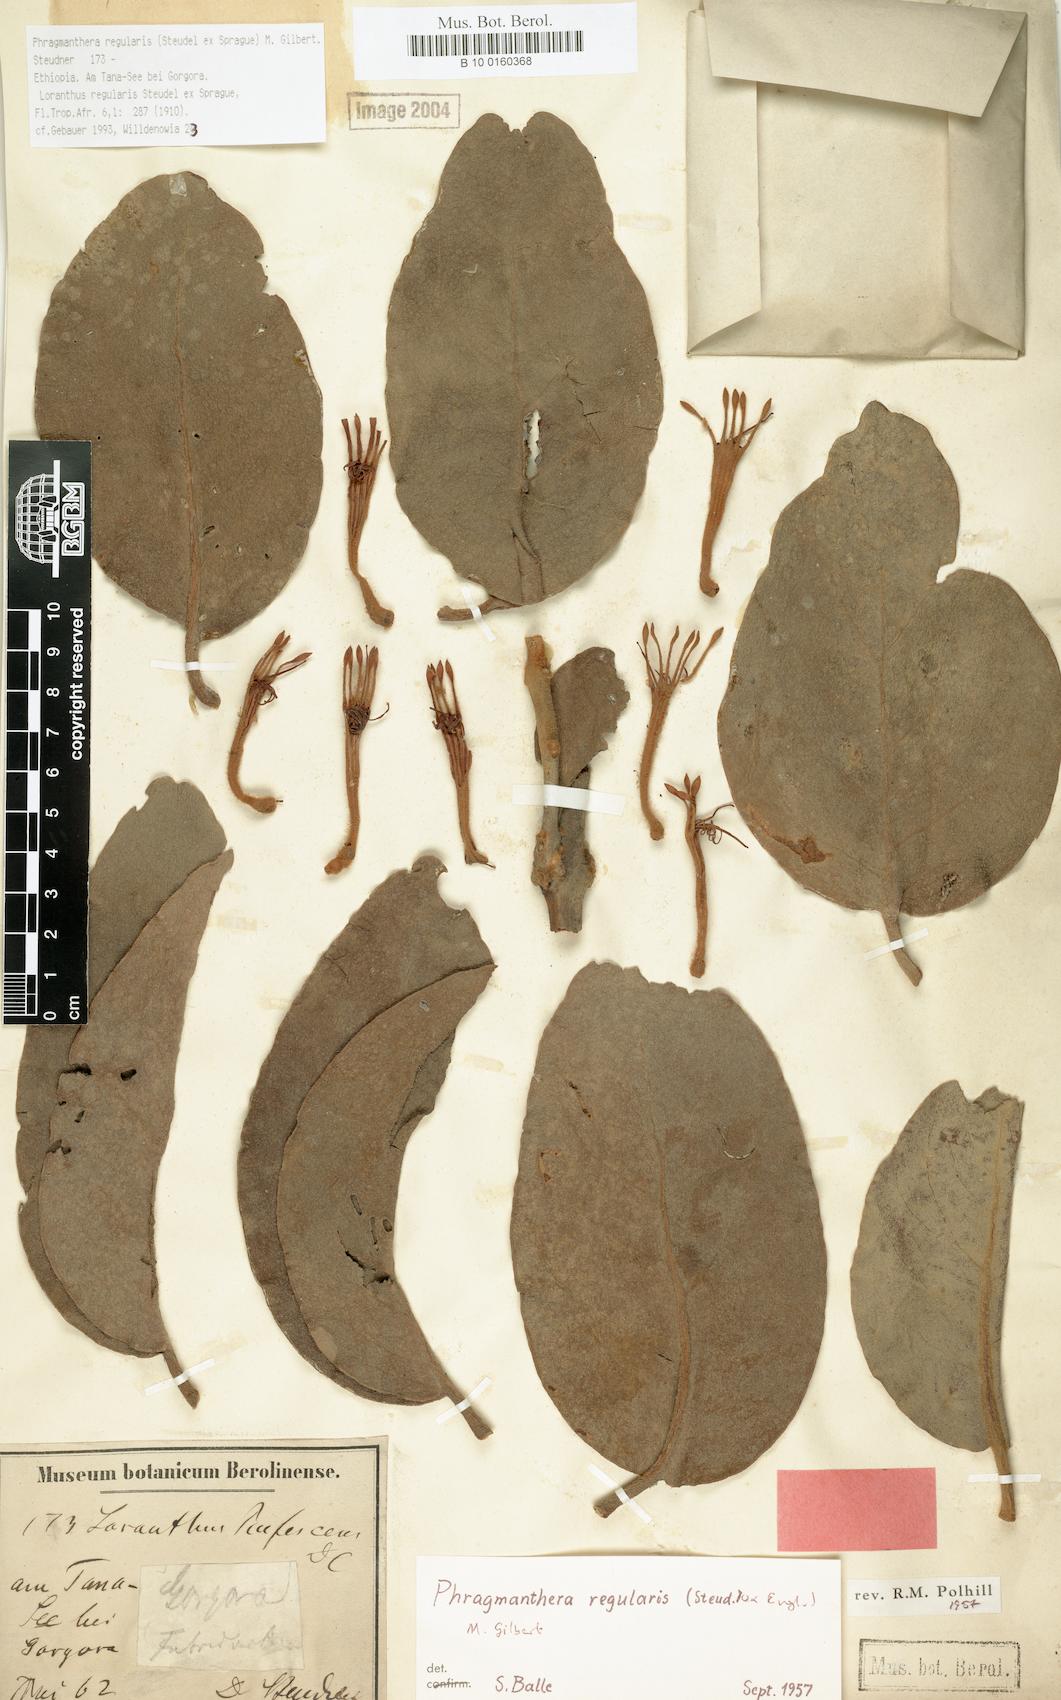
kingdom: Plantae
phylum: Tracheophyta
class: Magnoliopsida
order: Santalales
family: Loranthaceae
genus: Phragmanthera
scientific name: Phragmanthera regularis
